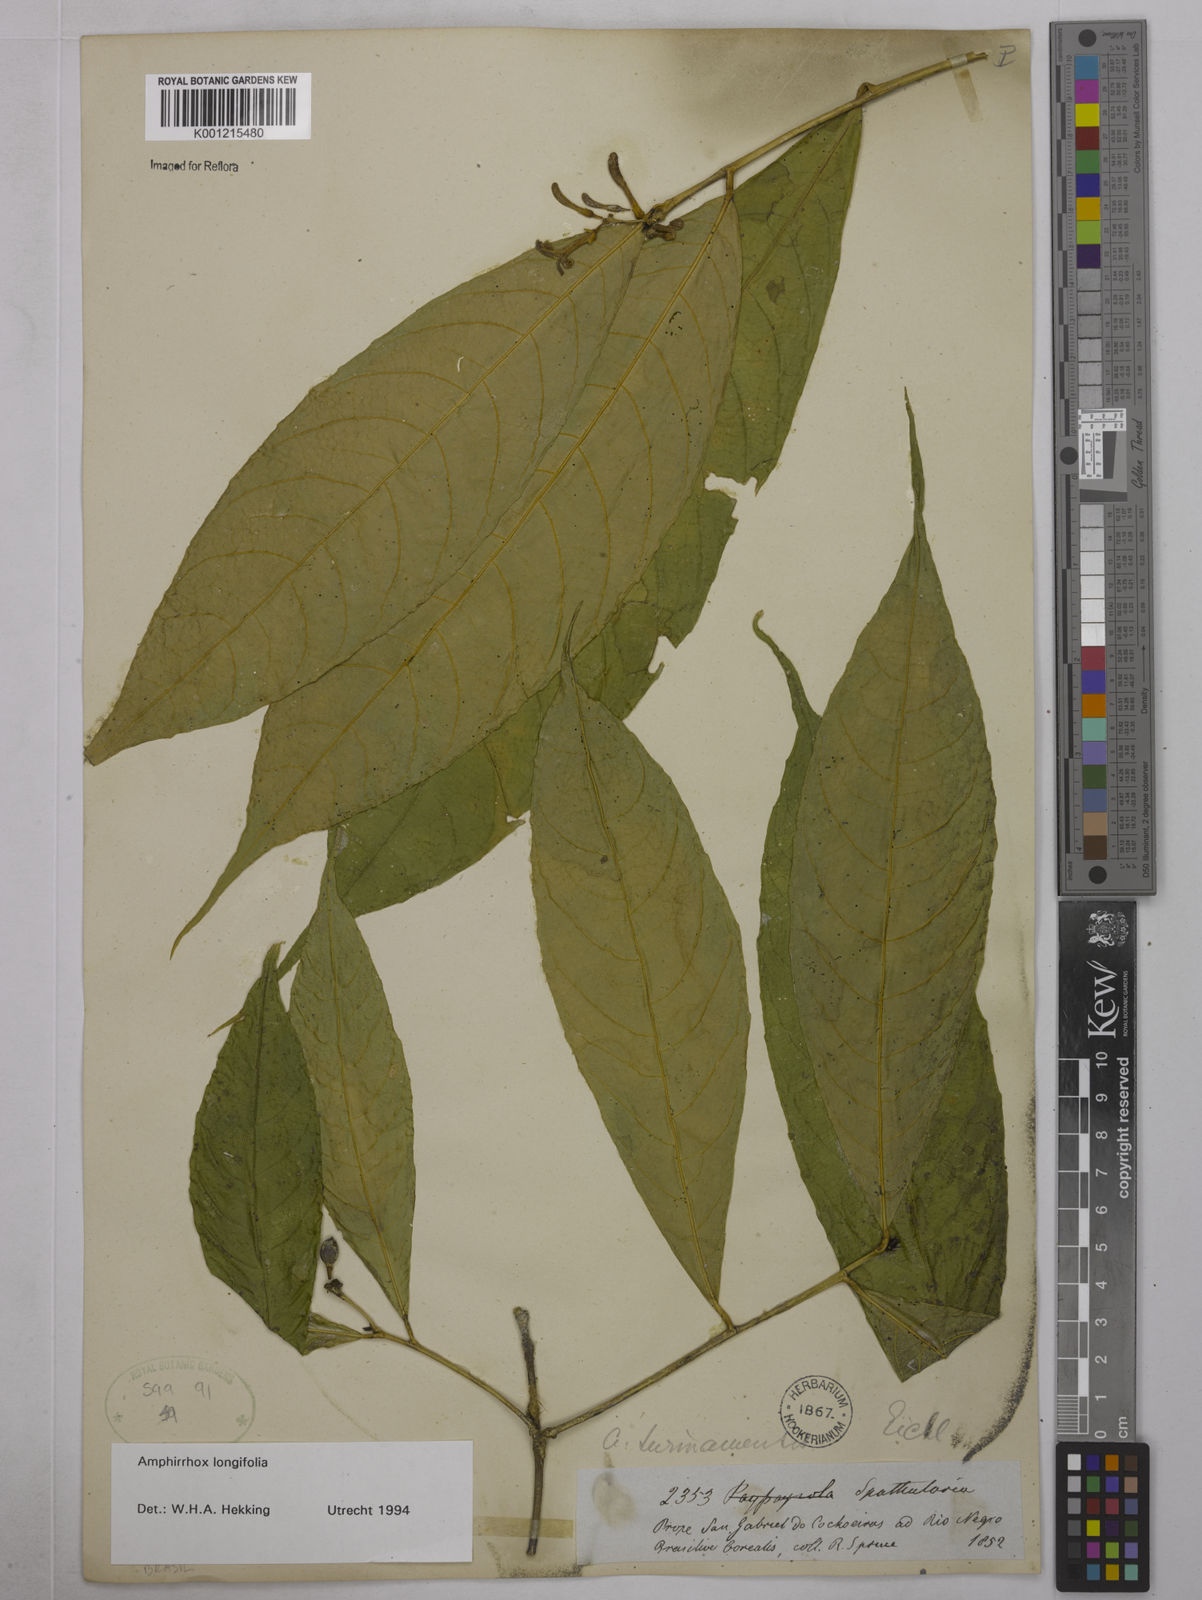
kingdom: Plantae
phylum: Tracheophyta
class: Magnoliopsida
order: Malpighiales
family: Violaceae
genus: Amphirrhox
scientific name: Amphirrhox longifolia
